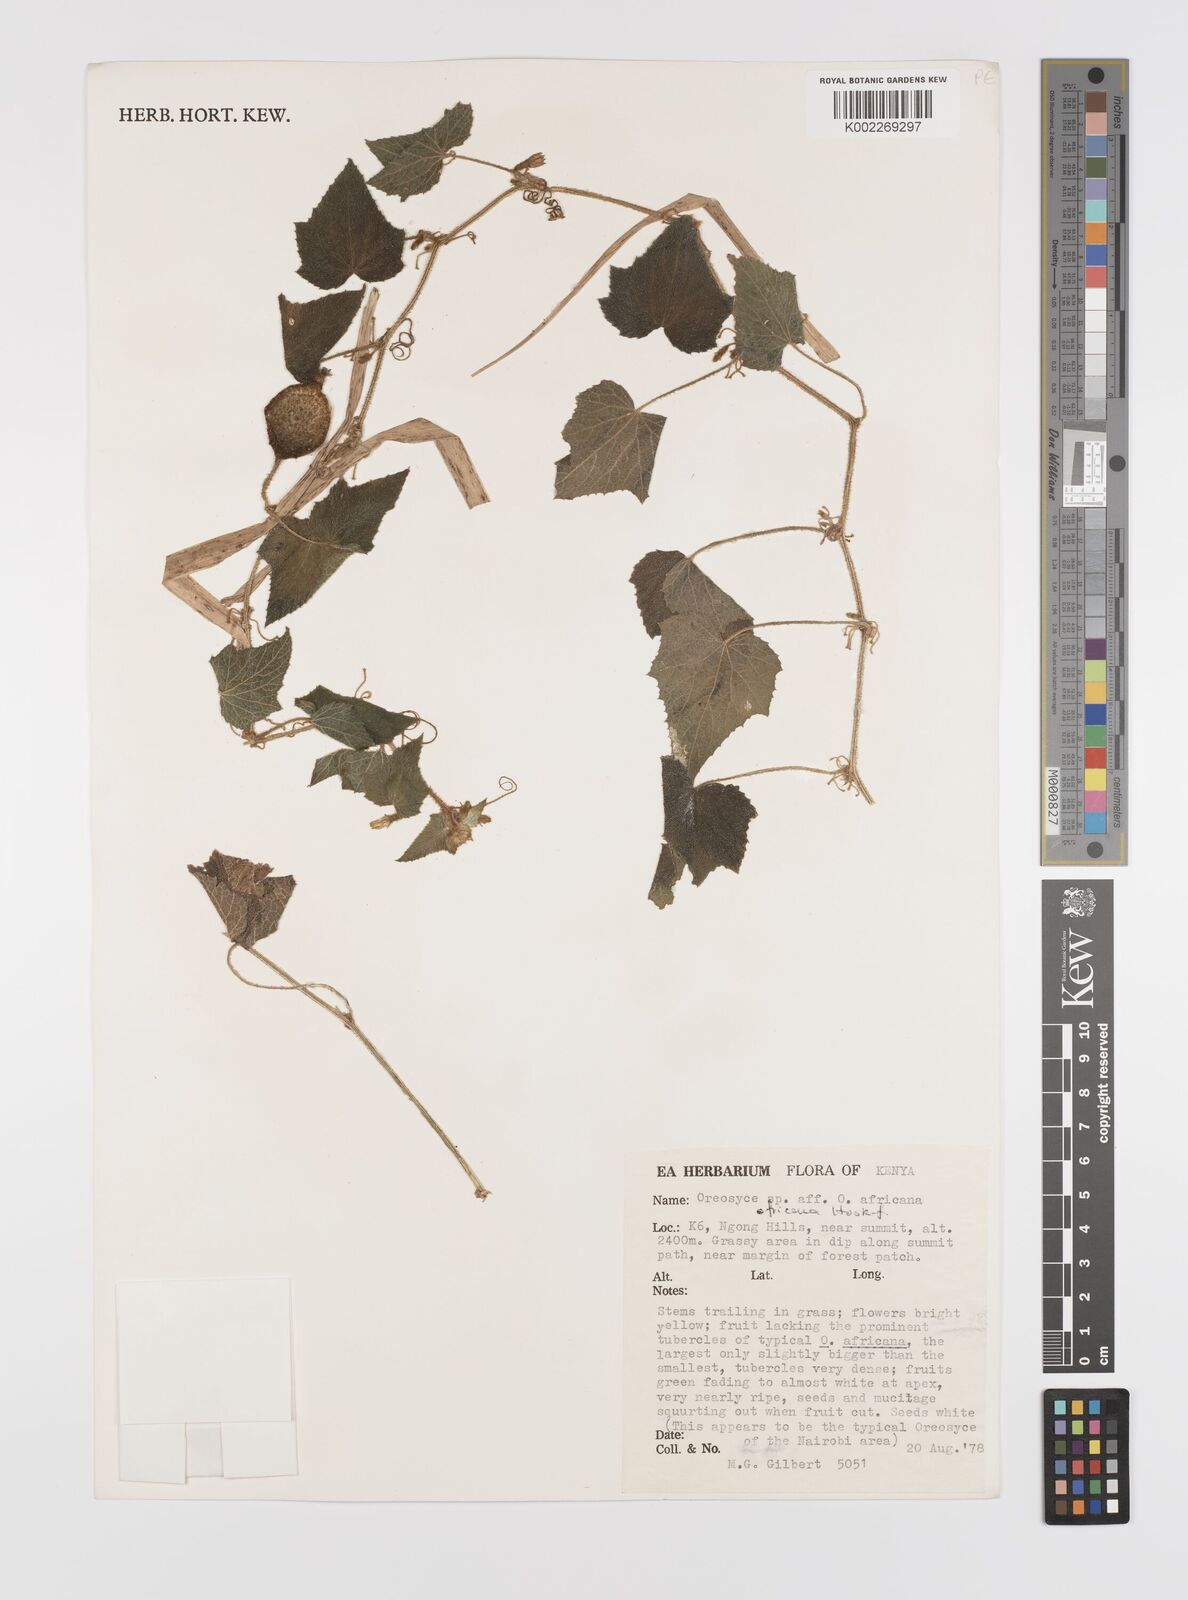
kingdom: Plantae
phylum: Tracheophyta
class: Magnoliopsida
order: Cucurbitales
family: Cucurbitaceae
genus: Cucumis
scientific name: Cucumis oreosyce
